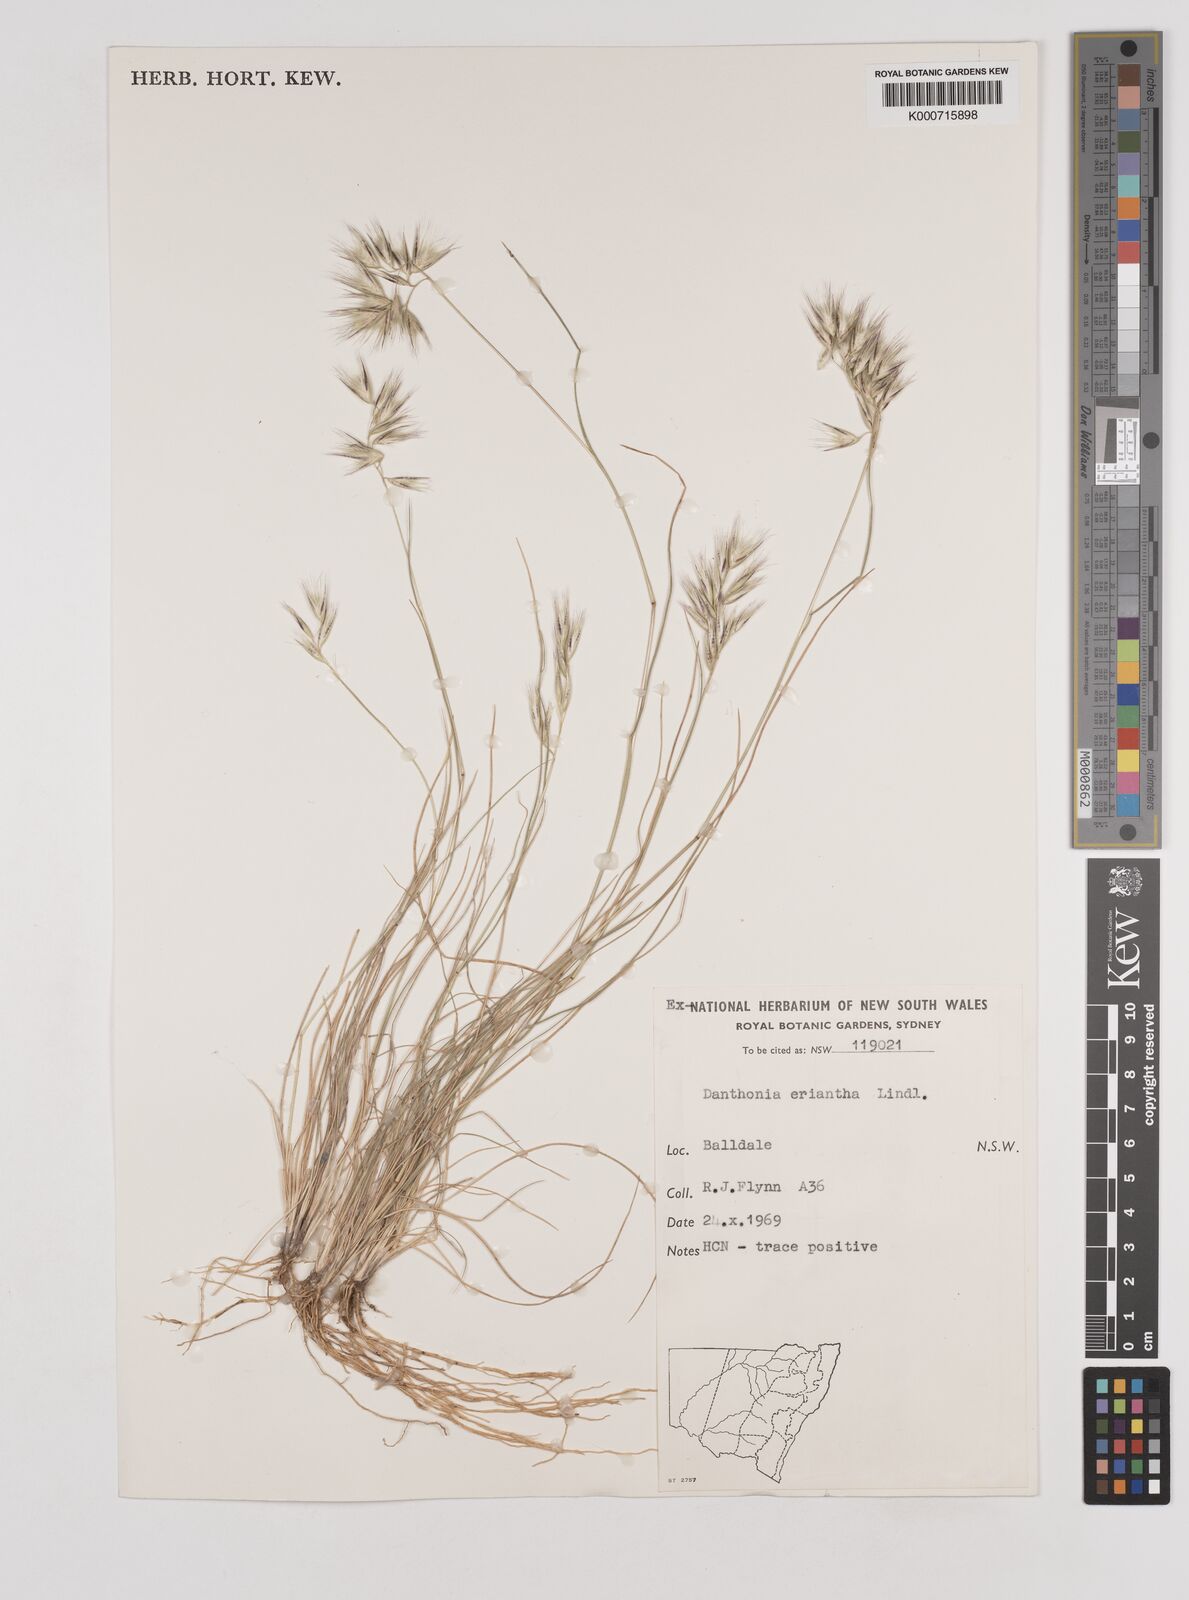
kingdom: Plantae
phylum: Tracheophyta
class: Liliopsida
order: Poales
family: Poaceae
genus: Rytidosperma
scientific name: Rytidosperma erianthum
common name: Hill wallaby grass
